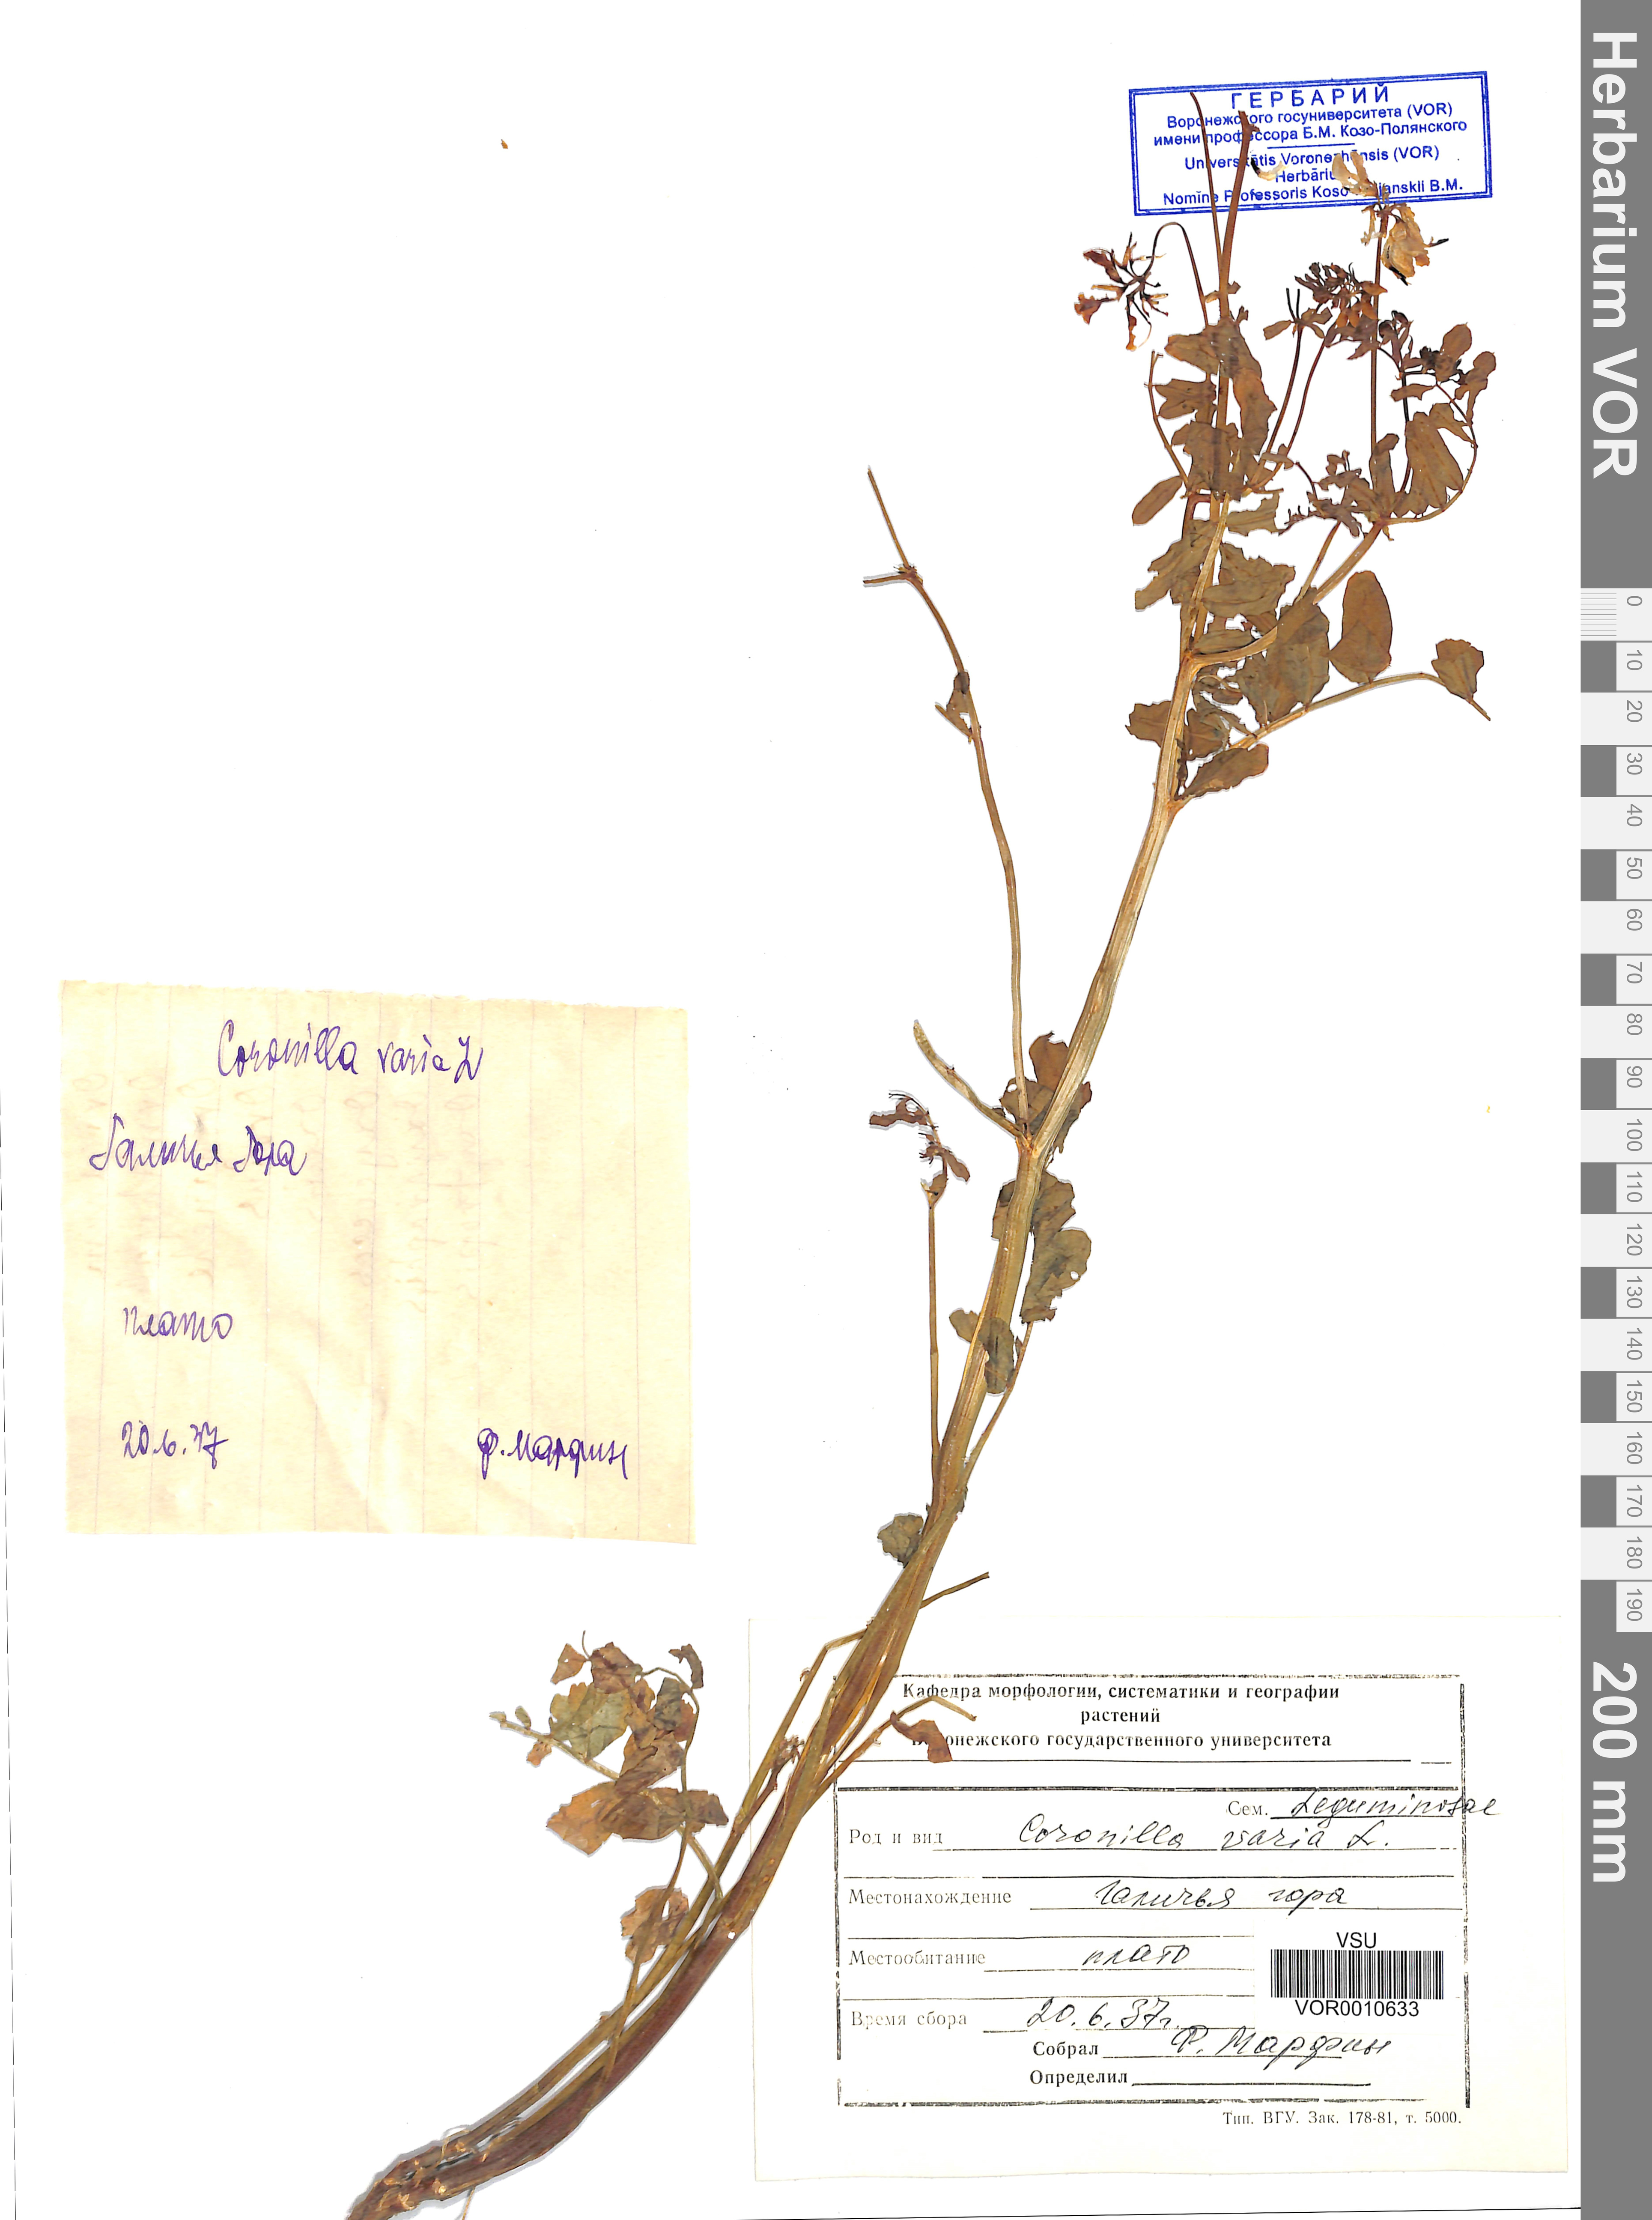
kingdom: Plantae
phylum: Tracheophyta
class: Magnoliopsida
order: Fabales
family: Fabaceae
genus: Coronilla
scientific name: Coronilla varia
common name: Crownvetch
